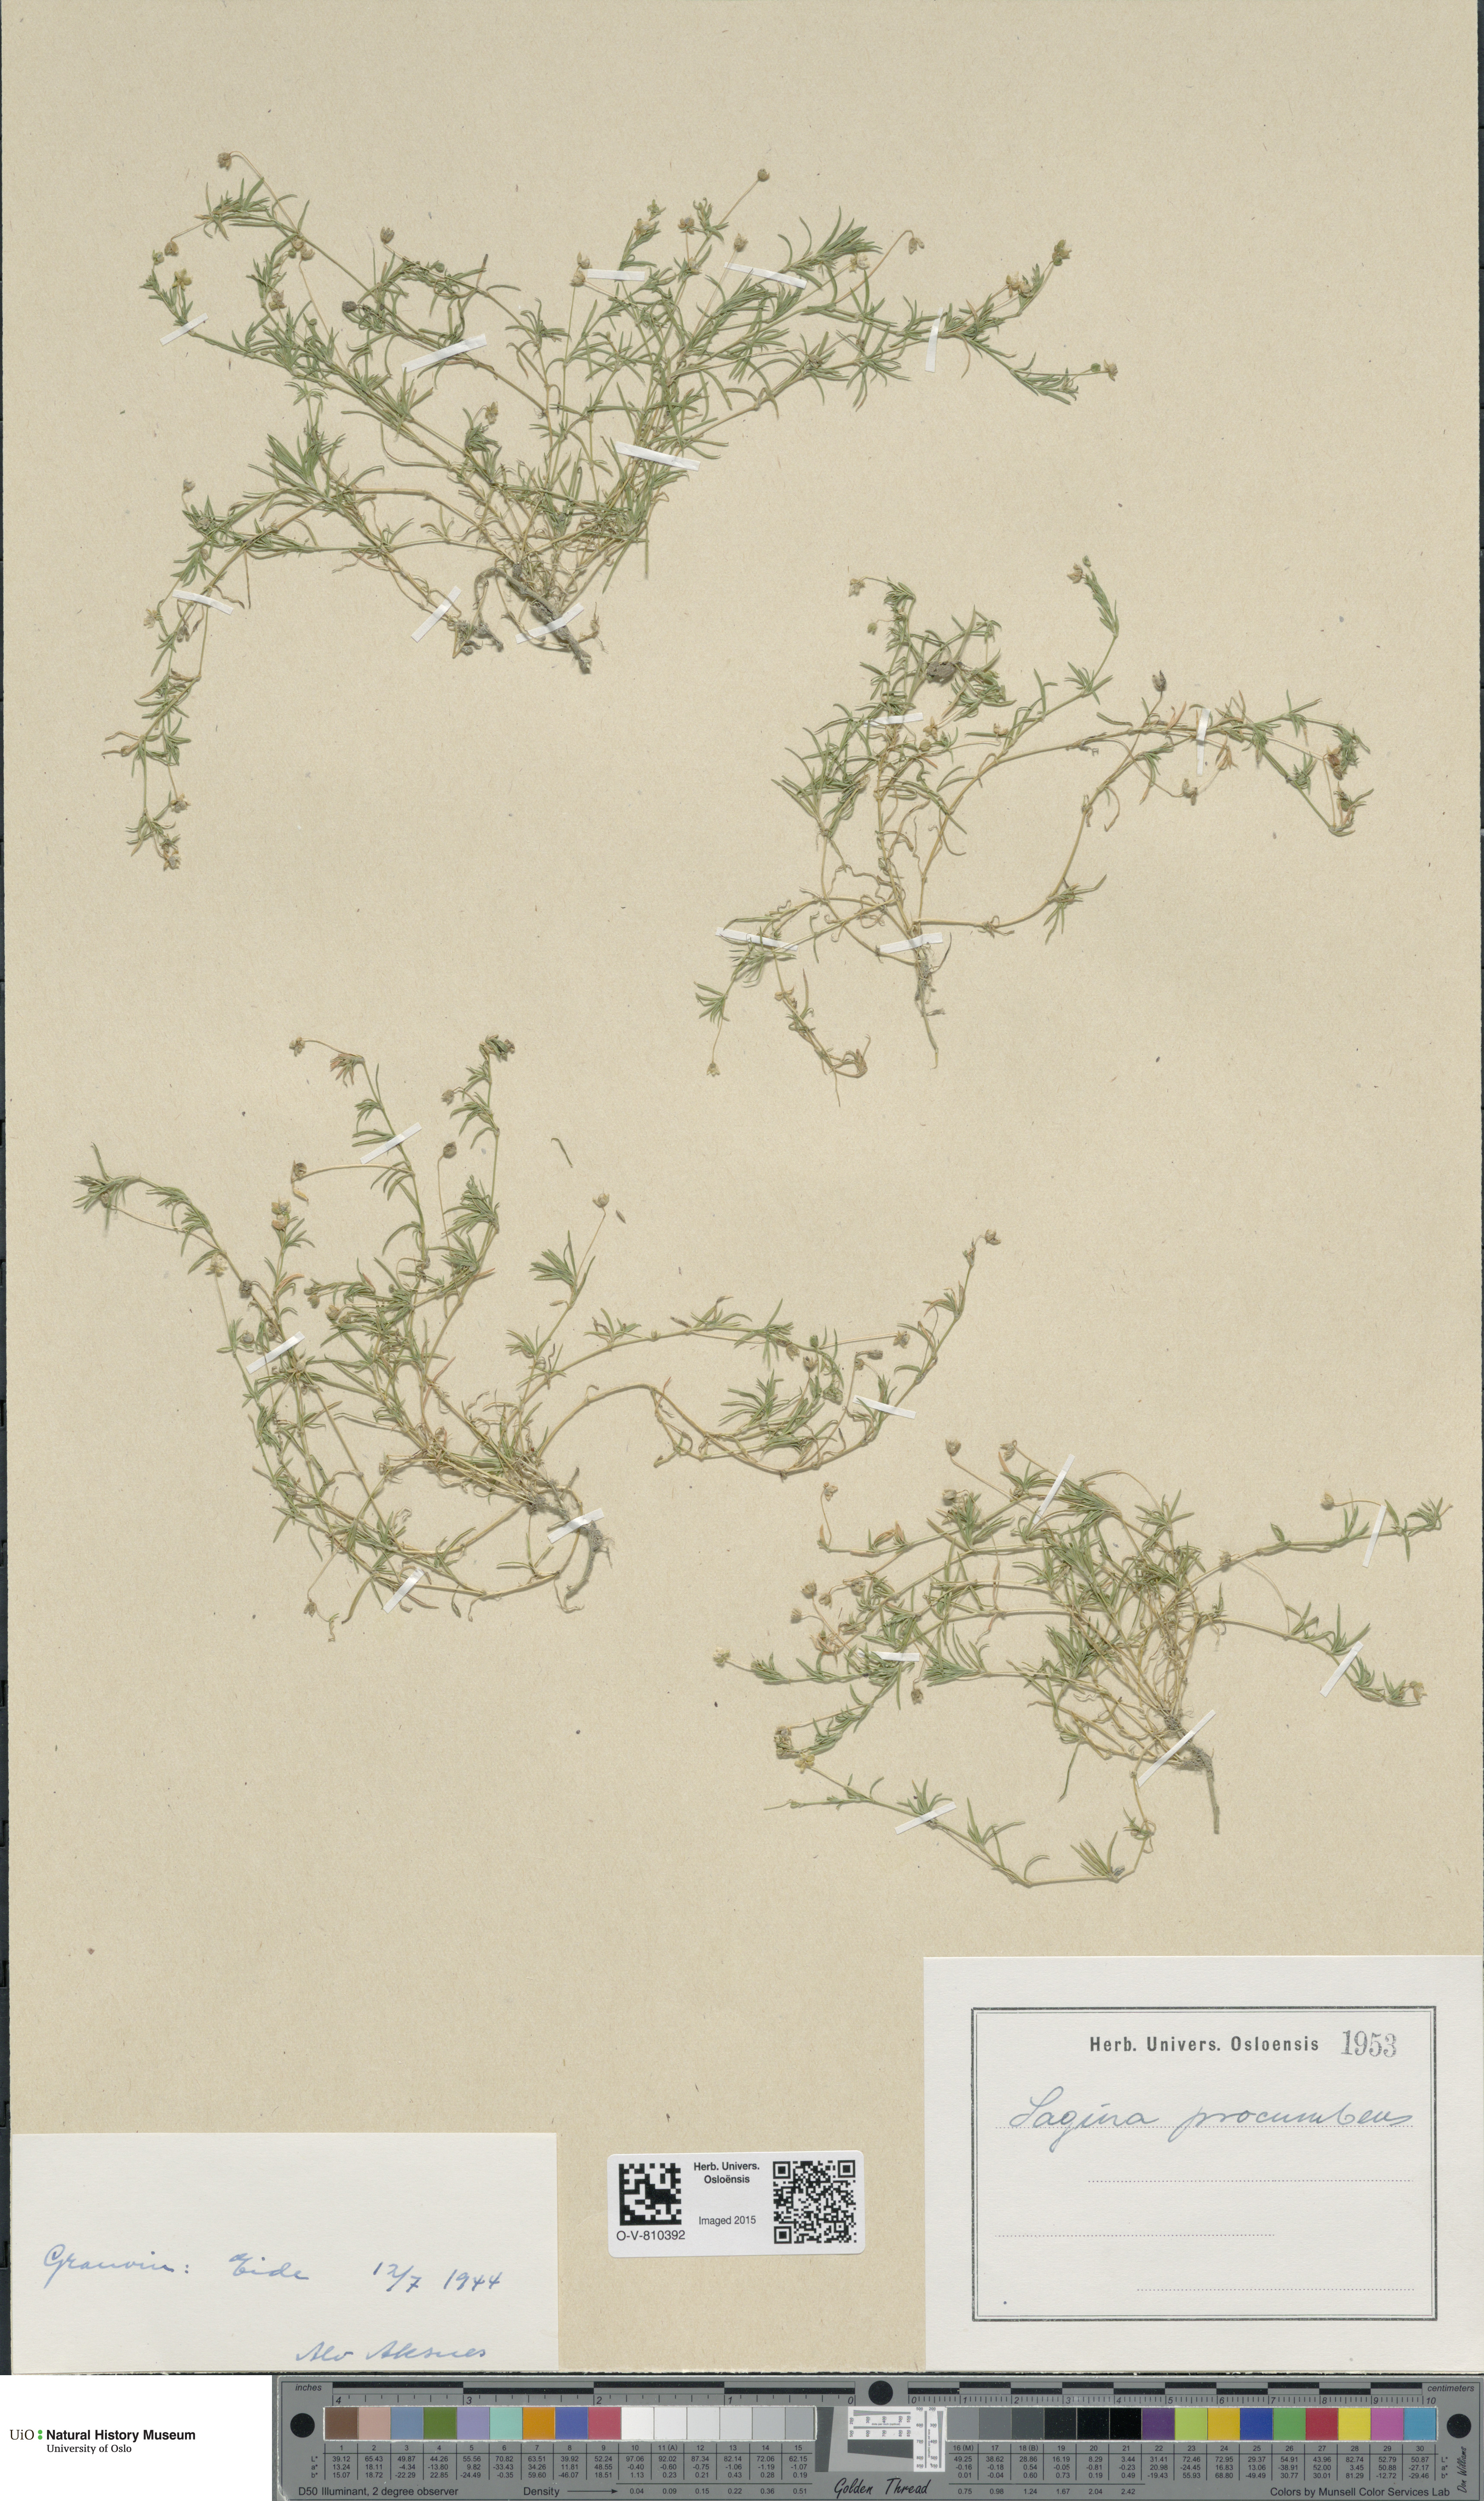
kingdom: Plantae
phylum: Tracheophyta
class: Magnoliopsida
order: Caryophyllales
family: Caryophyllaceae
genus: Sagina
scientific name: Sagina procumbens
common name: Procumbent pearlwort
